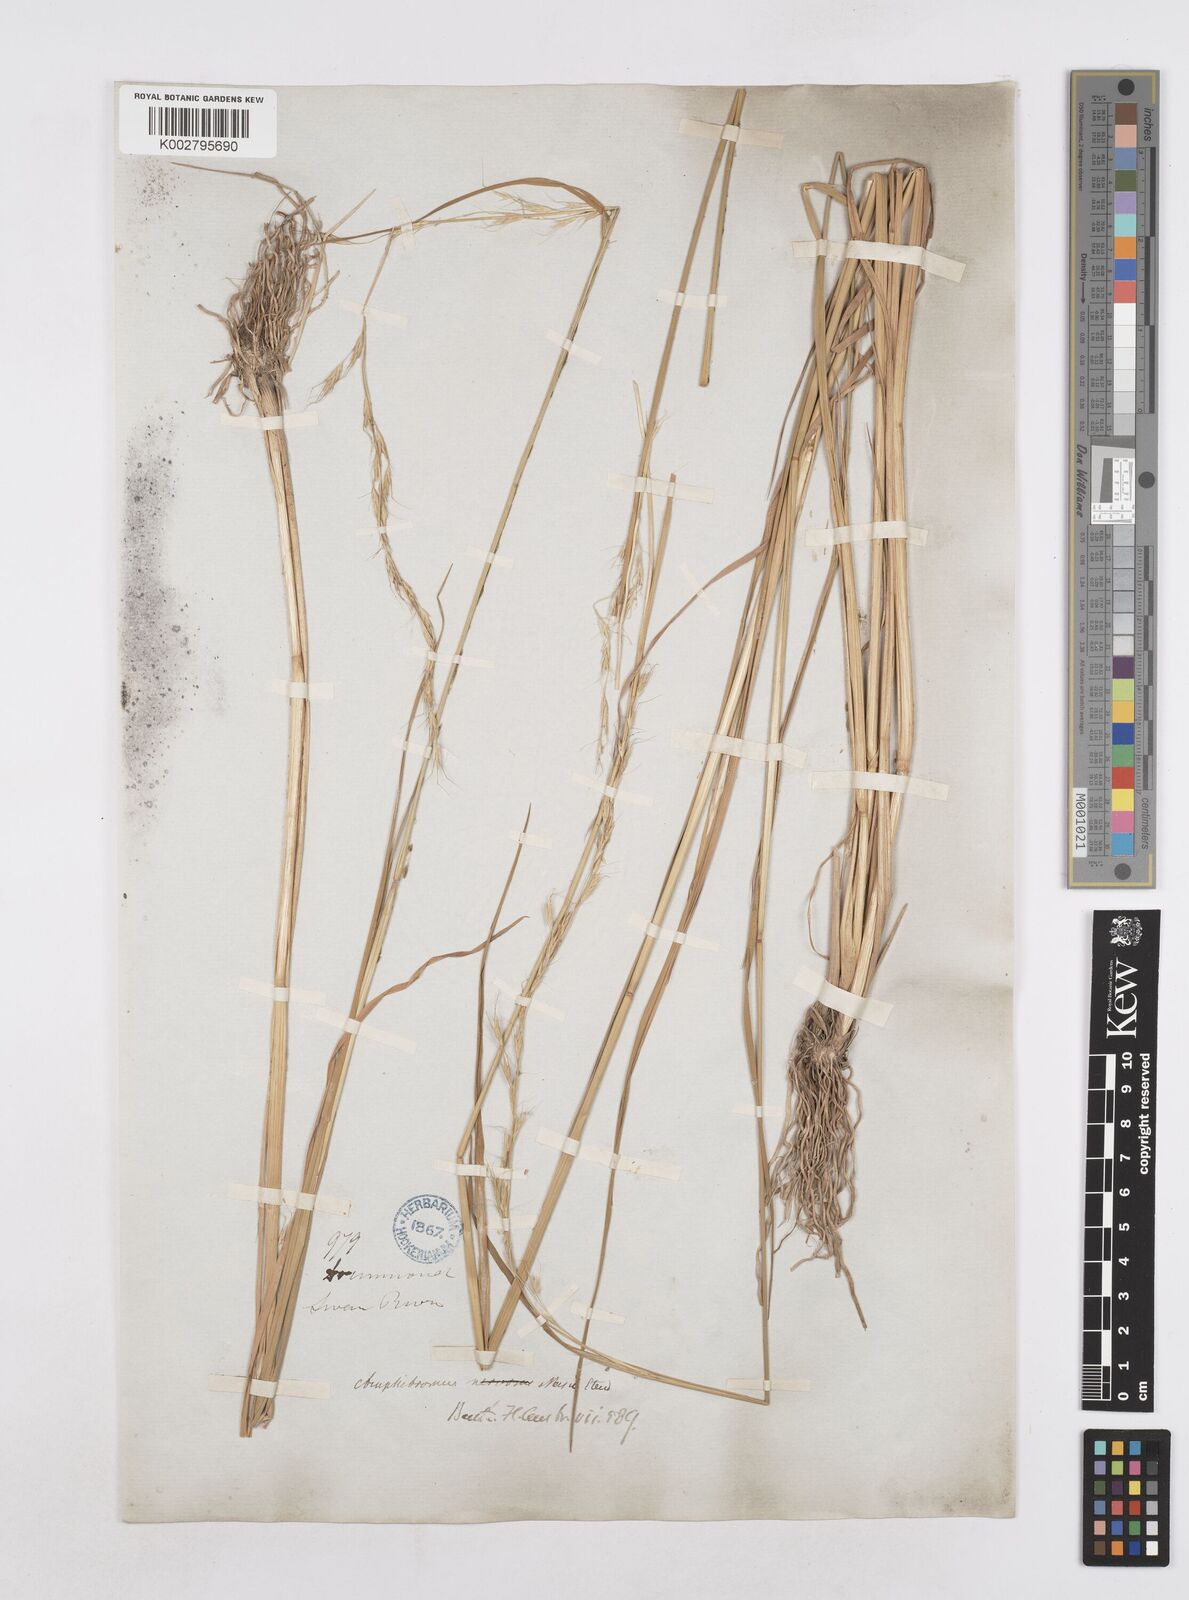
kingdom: Plantae
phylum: Tracheophyta
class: Liliopsida
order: Poales
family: Poaceae
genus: Amphibromus
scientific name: Amphibromus neesii
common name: Australian wallaby grass
